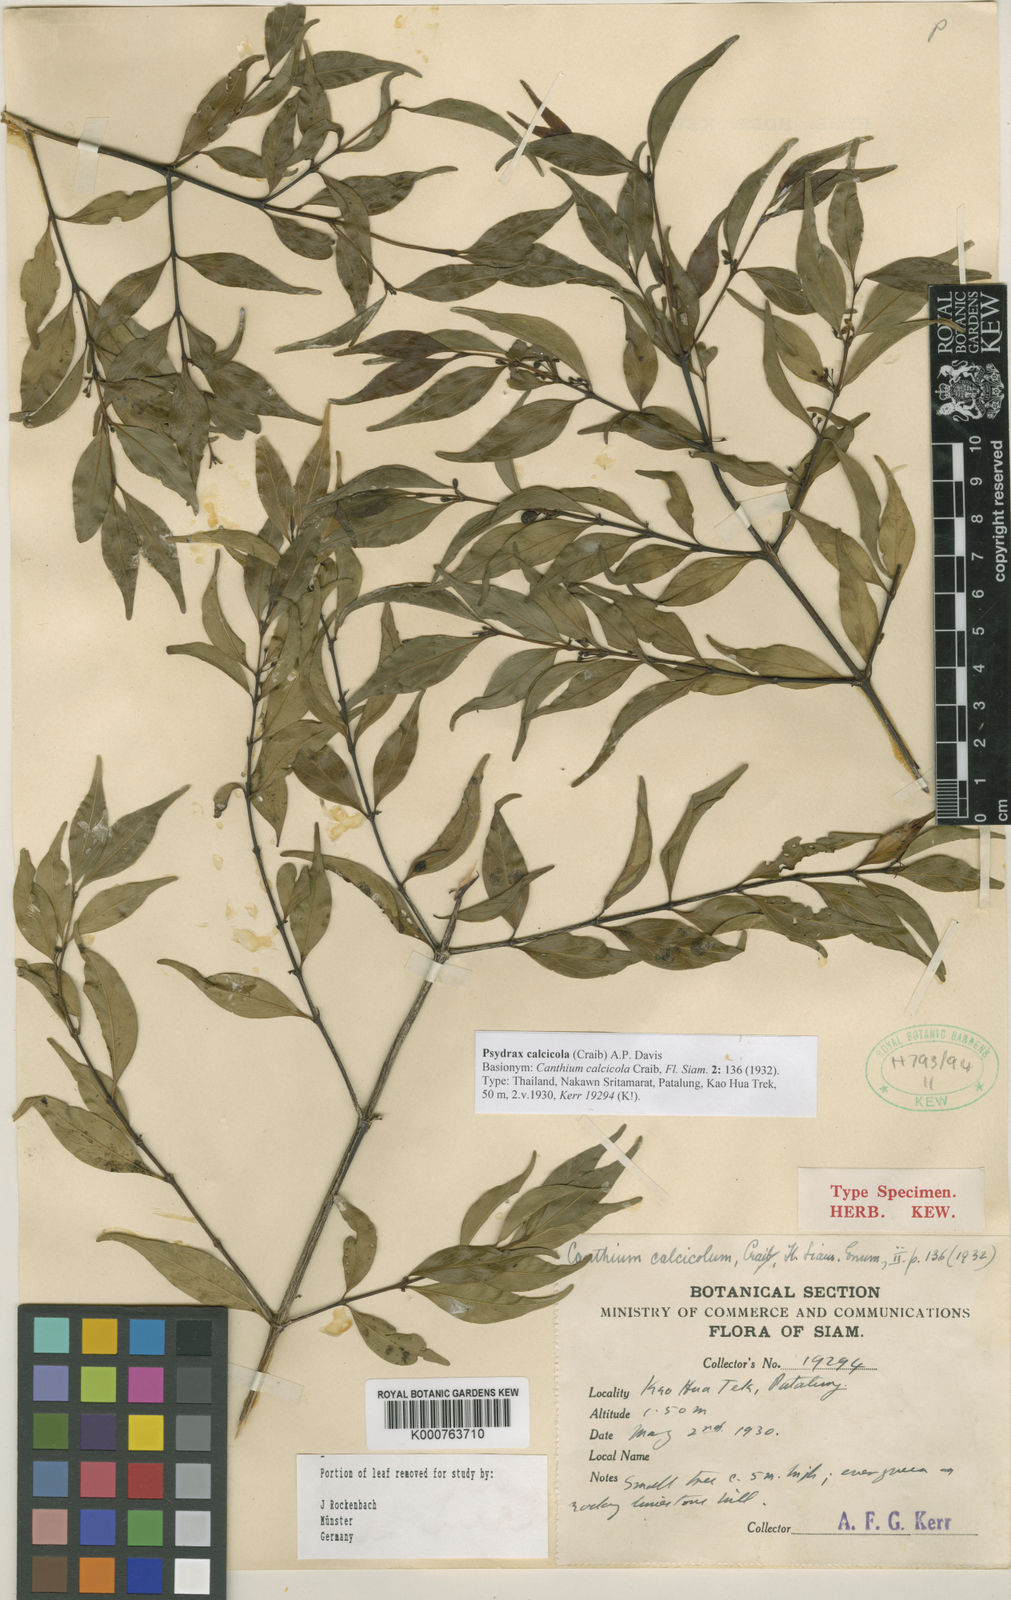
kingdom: Plantae
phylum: Tracheophyta
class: Magnoliopsida
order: Gentianales
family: Rubiaceae
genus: Psydrax
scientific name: Psydrax calcicola
